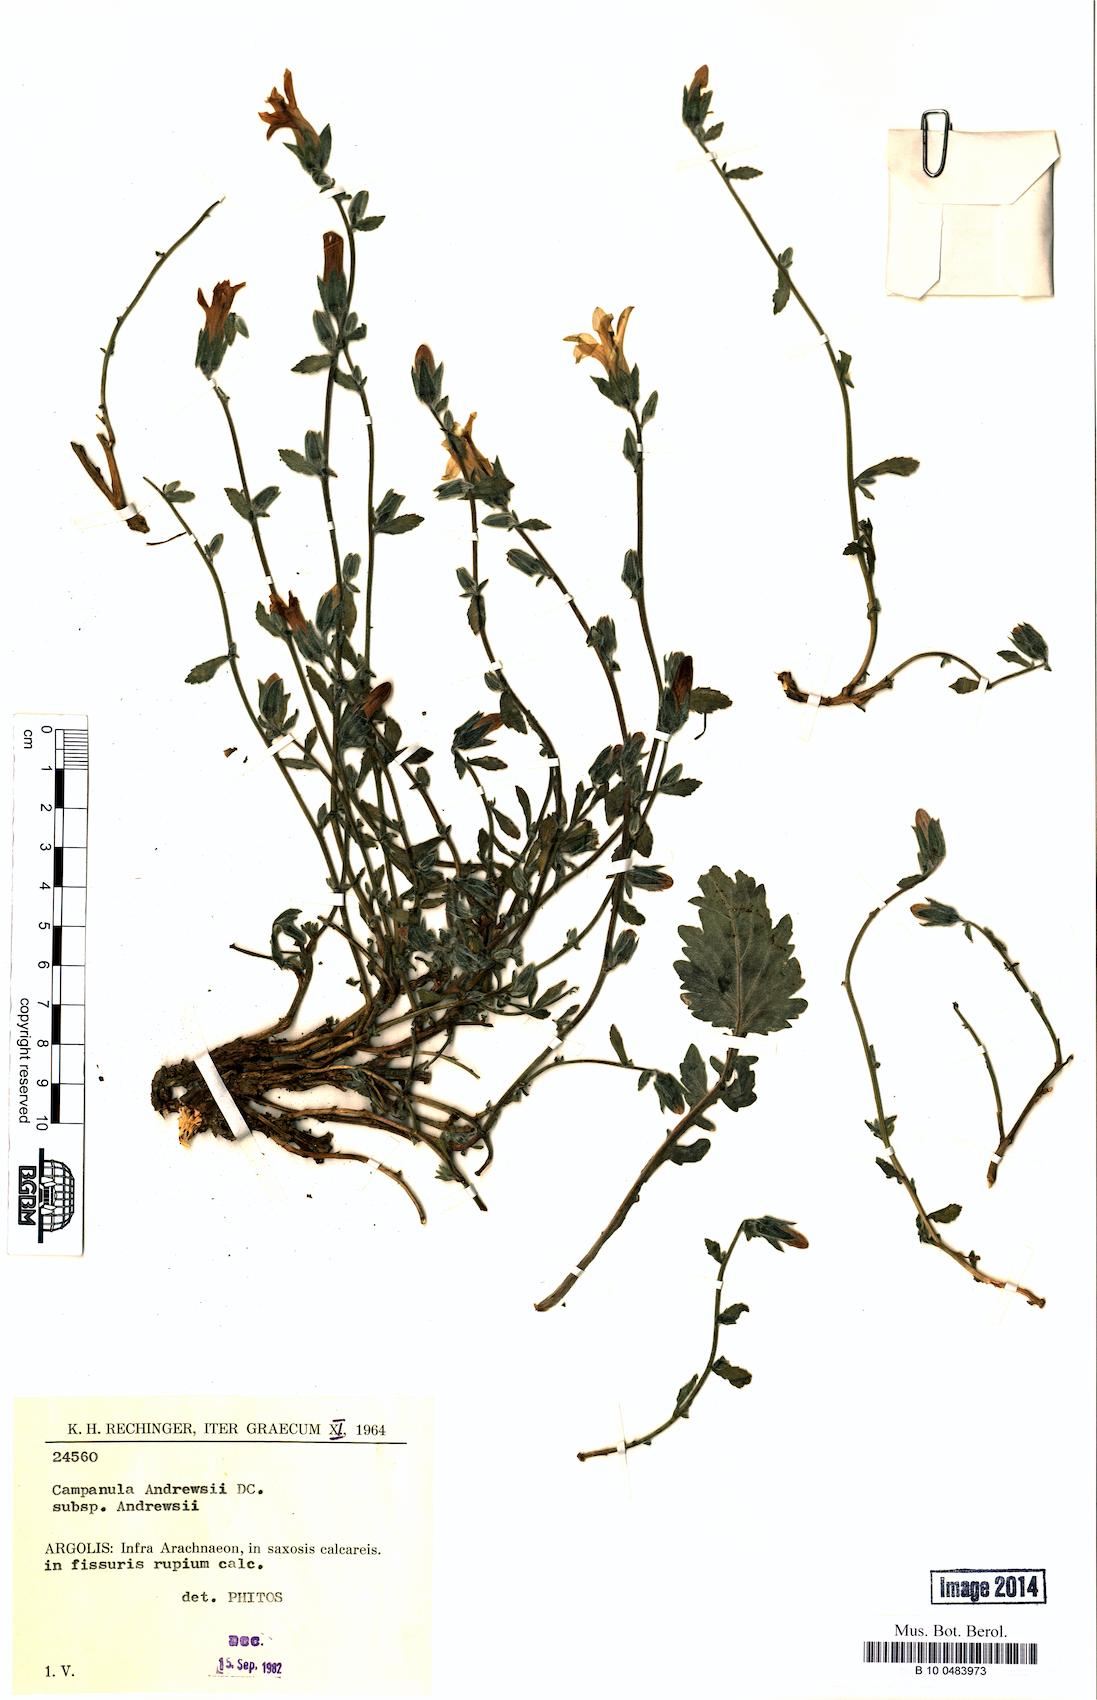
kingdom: Plantae
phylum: Tracheophyta
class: Magnoliopsida
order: Asterales
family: Campanulaceae
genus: Campanula
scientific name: Campanula andrewsii
